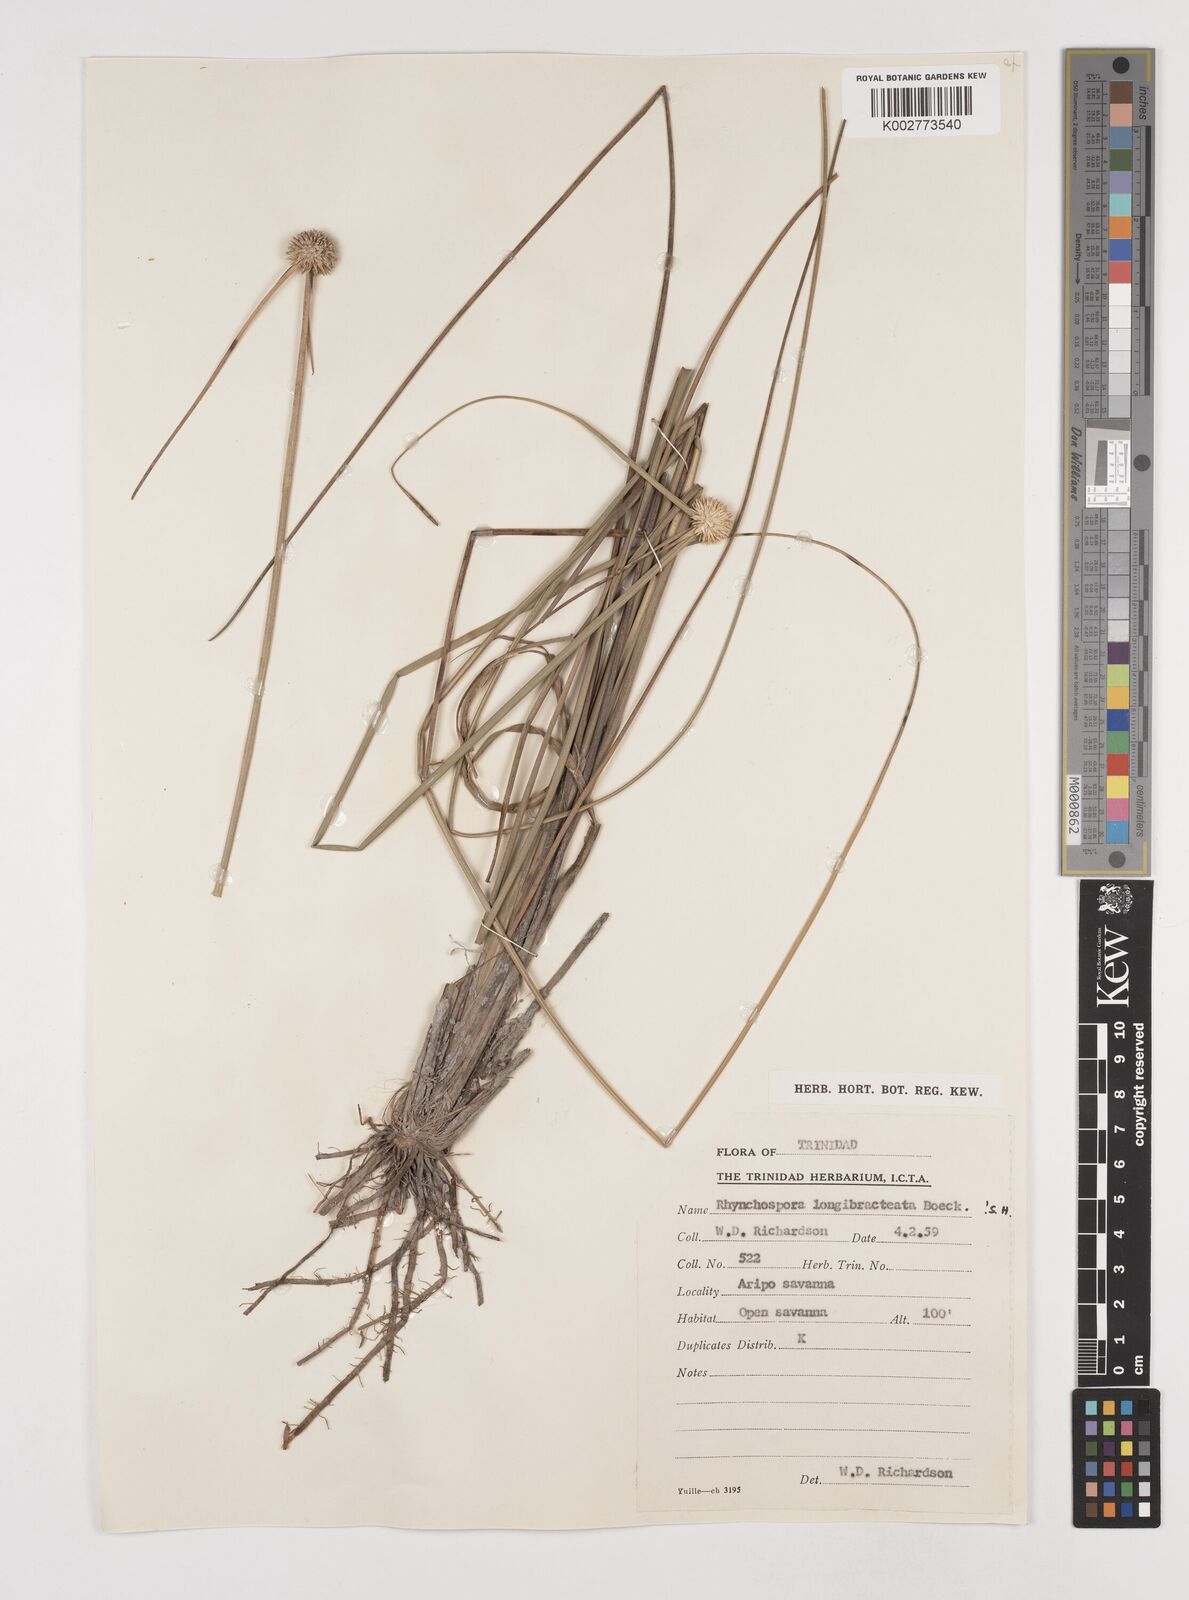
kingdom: Plantae
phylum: Tracheophyta
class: Liliopsida
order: Poales
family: Cyperaceae
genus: Rhynchospora
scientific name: Rhynchospora longibracteata
